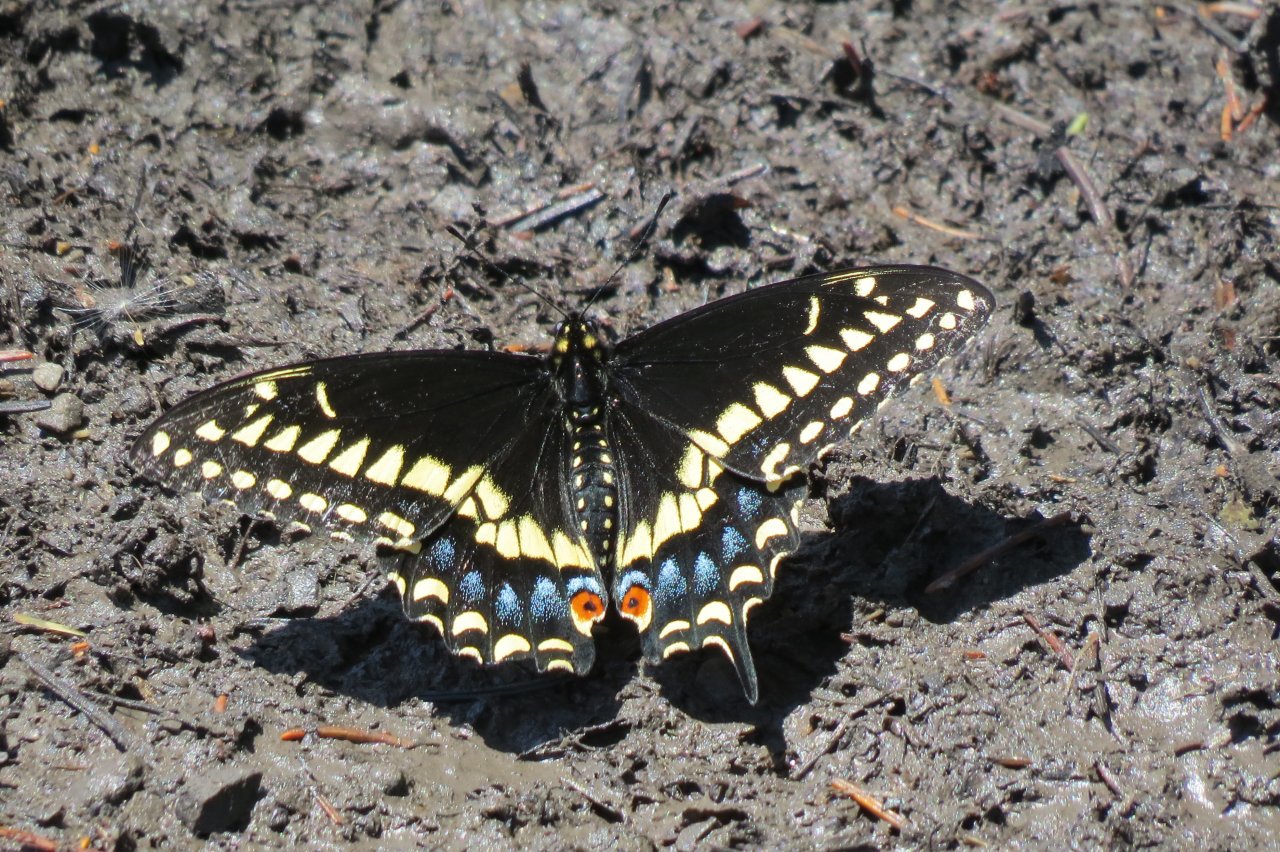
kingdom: Animalia
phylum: Arthropoda
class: Insecta
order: Lepidoptera
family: Papilionidae
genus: Papilio
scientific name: Papilio polyxenes
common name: Black Swallowtail
